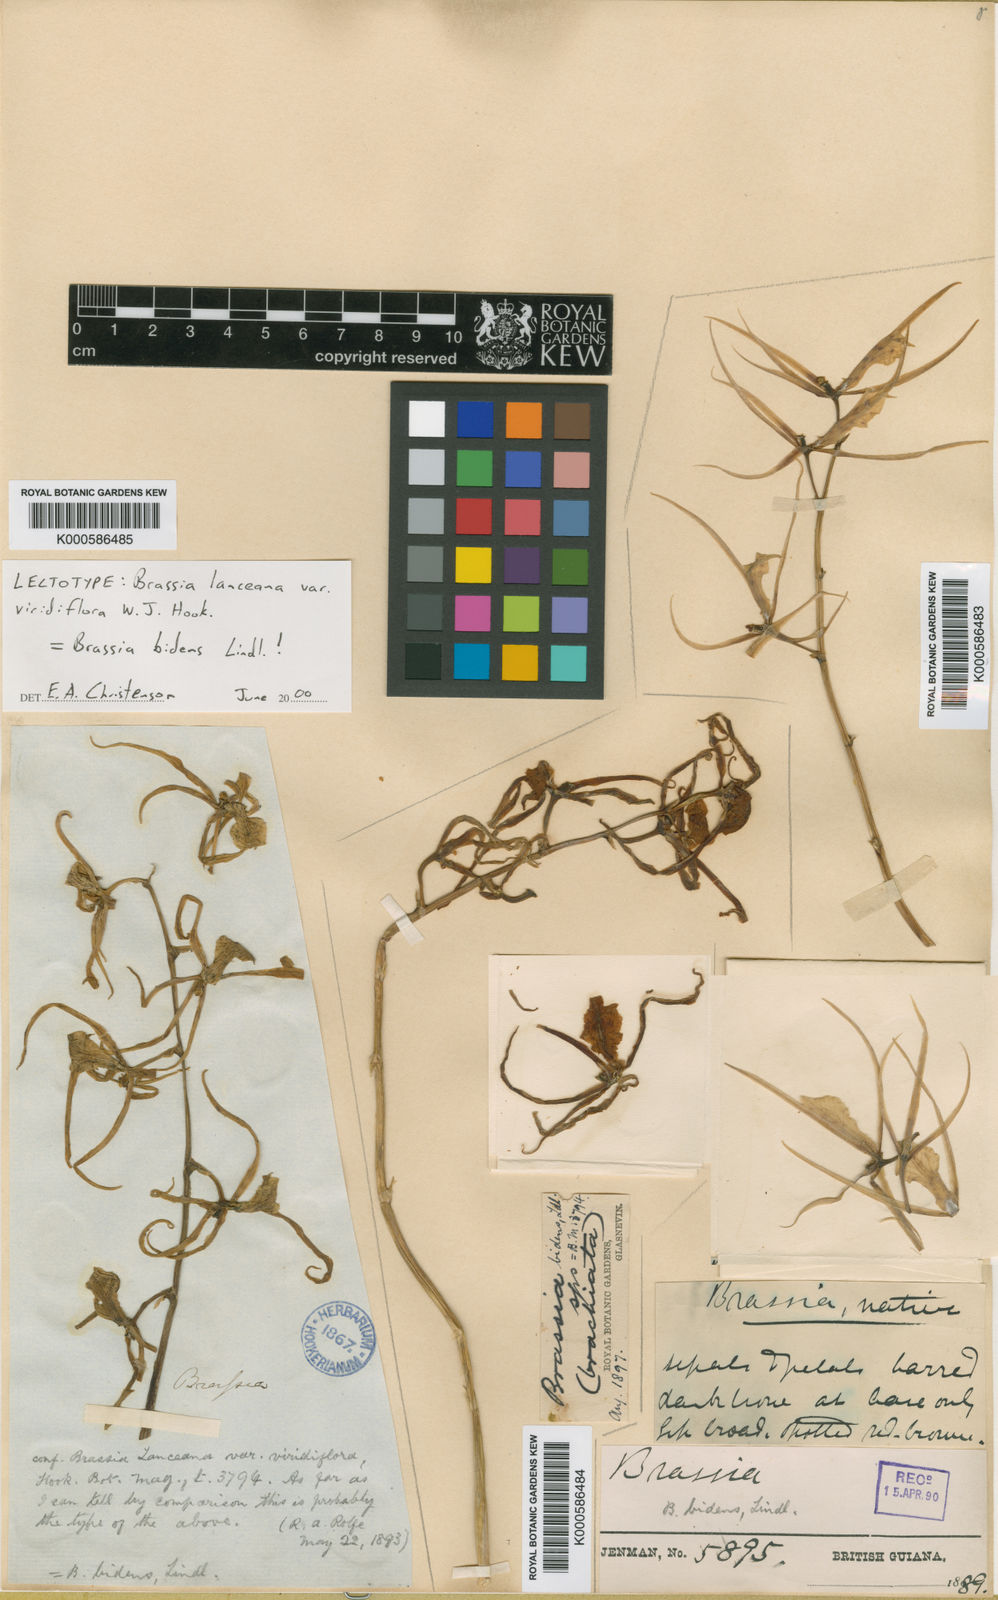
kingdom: Plantae
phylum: Tracheophyta
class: Liliopsida
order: Asparagales
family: Orchidaceae
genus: Brassia
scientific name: Brassia bidens
